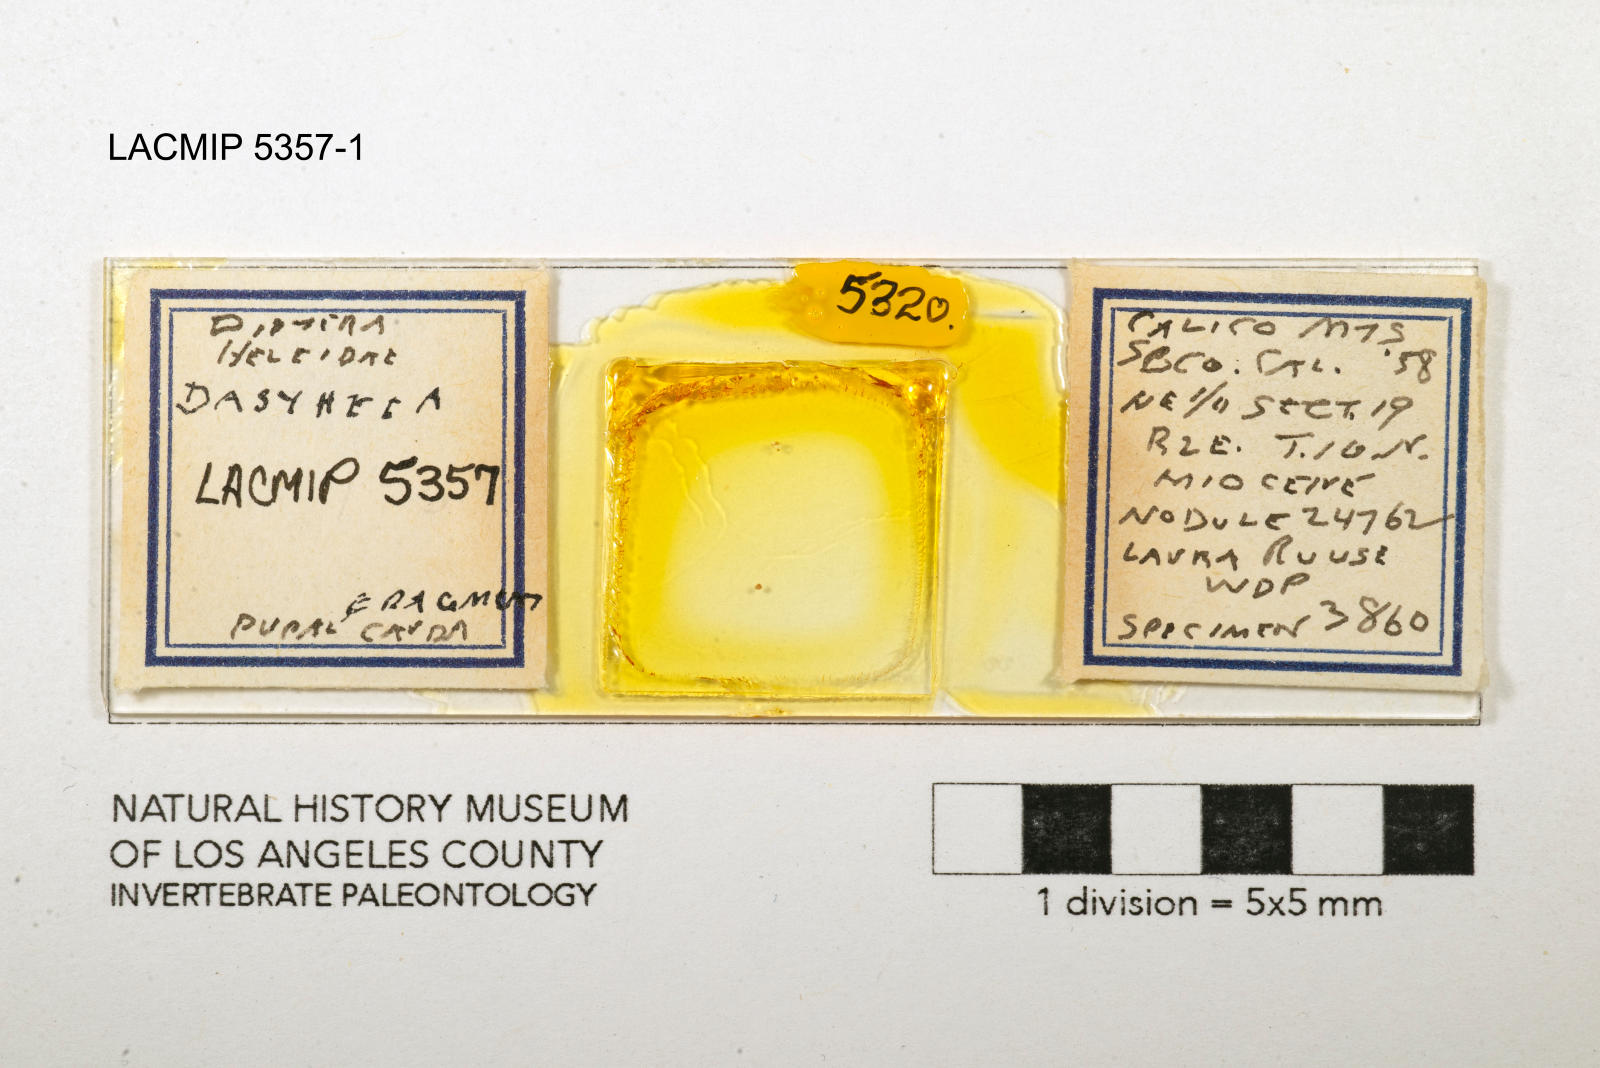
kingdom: Animalia
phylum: Arthropoda
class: Insecta
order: Diptera
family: Ceratopogonidae
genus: Dasyhelea
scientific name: Dasyhelea dara
